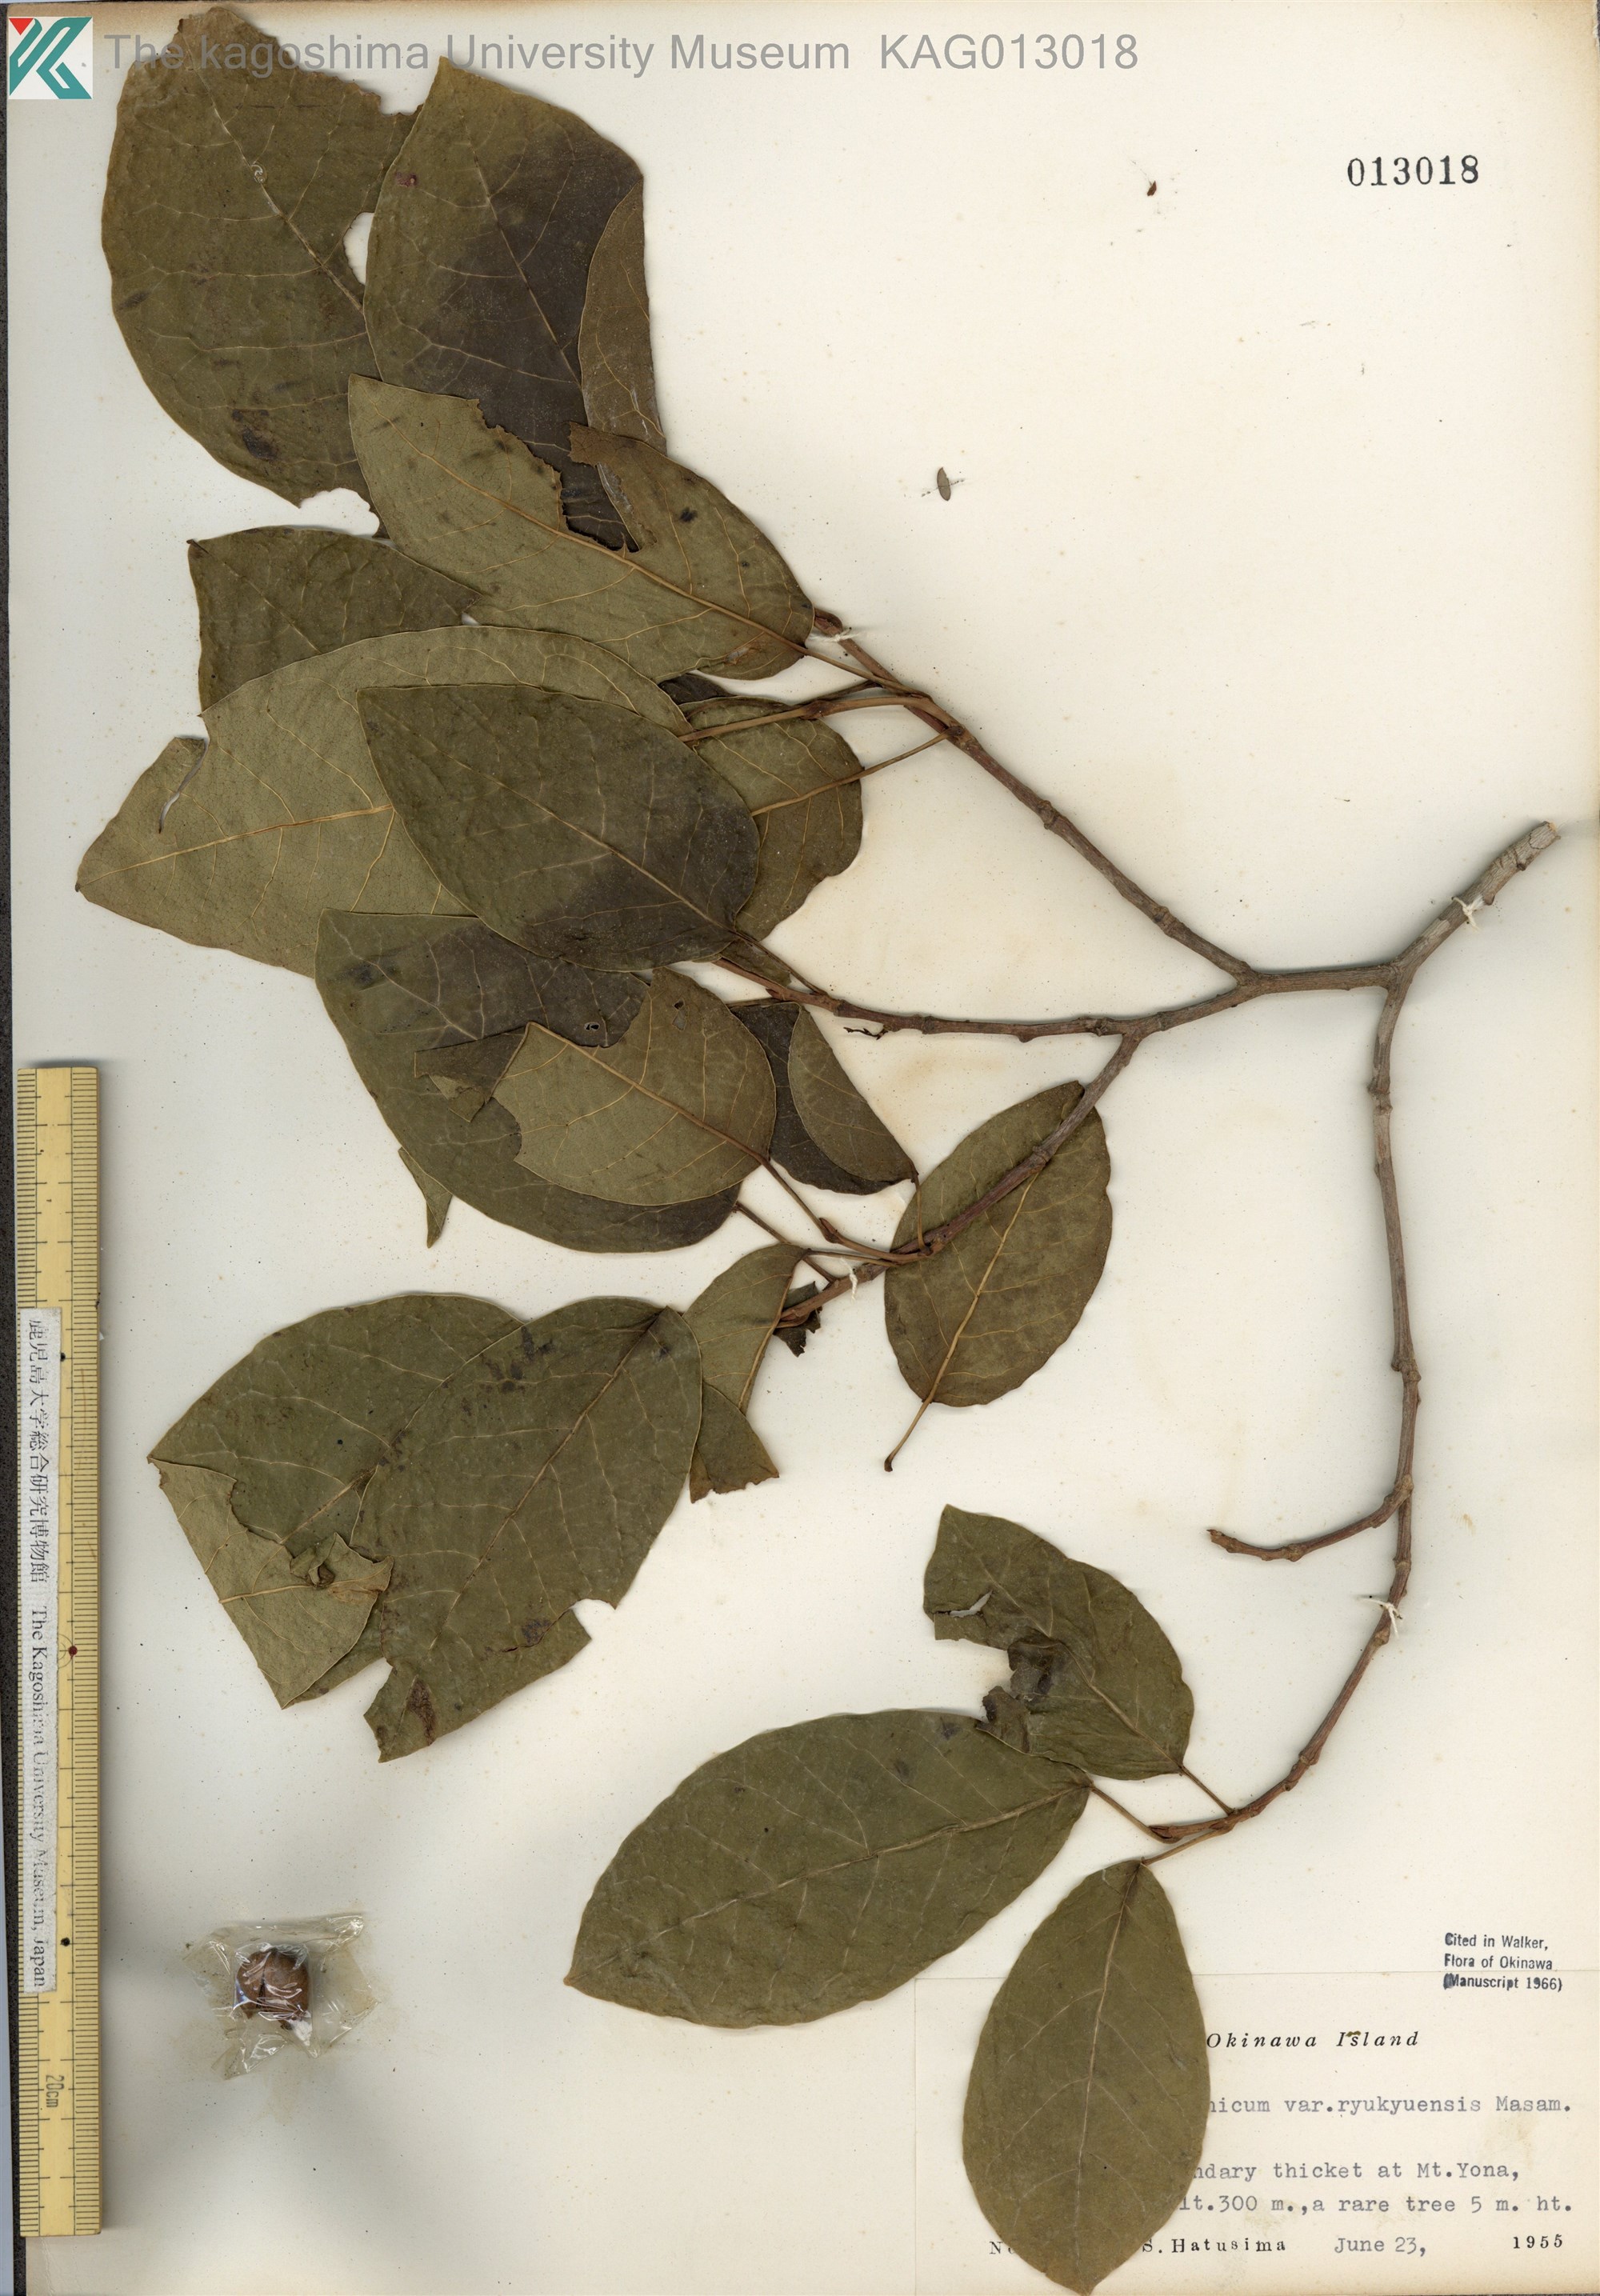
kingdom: Plantae
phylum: Tracheophyta
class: Magnoliopsida
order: Malpighiales
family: Euphorbiaceae
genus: Neoshirakia
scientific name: Neoshirakia japonica
